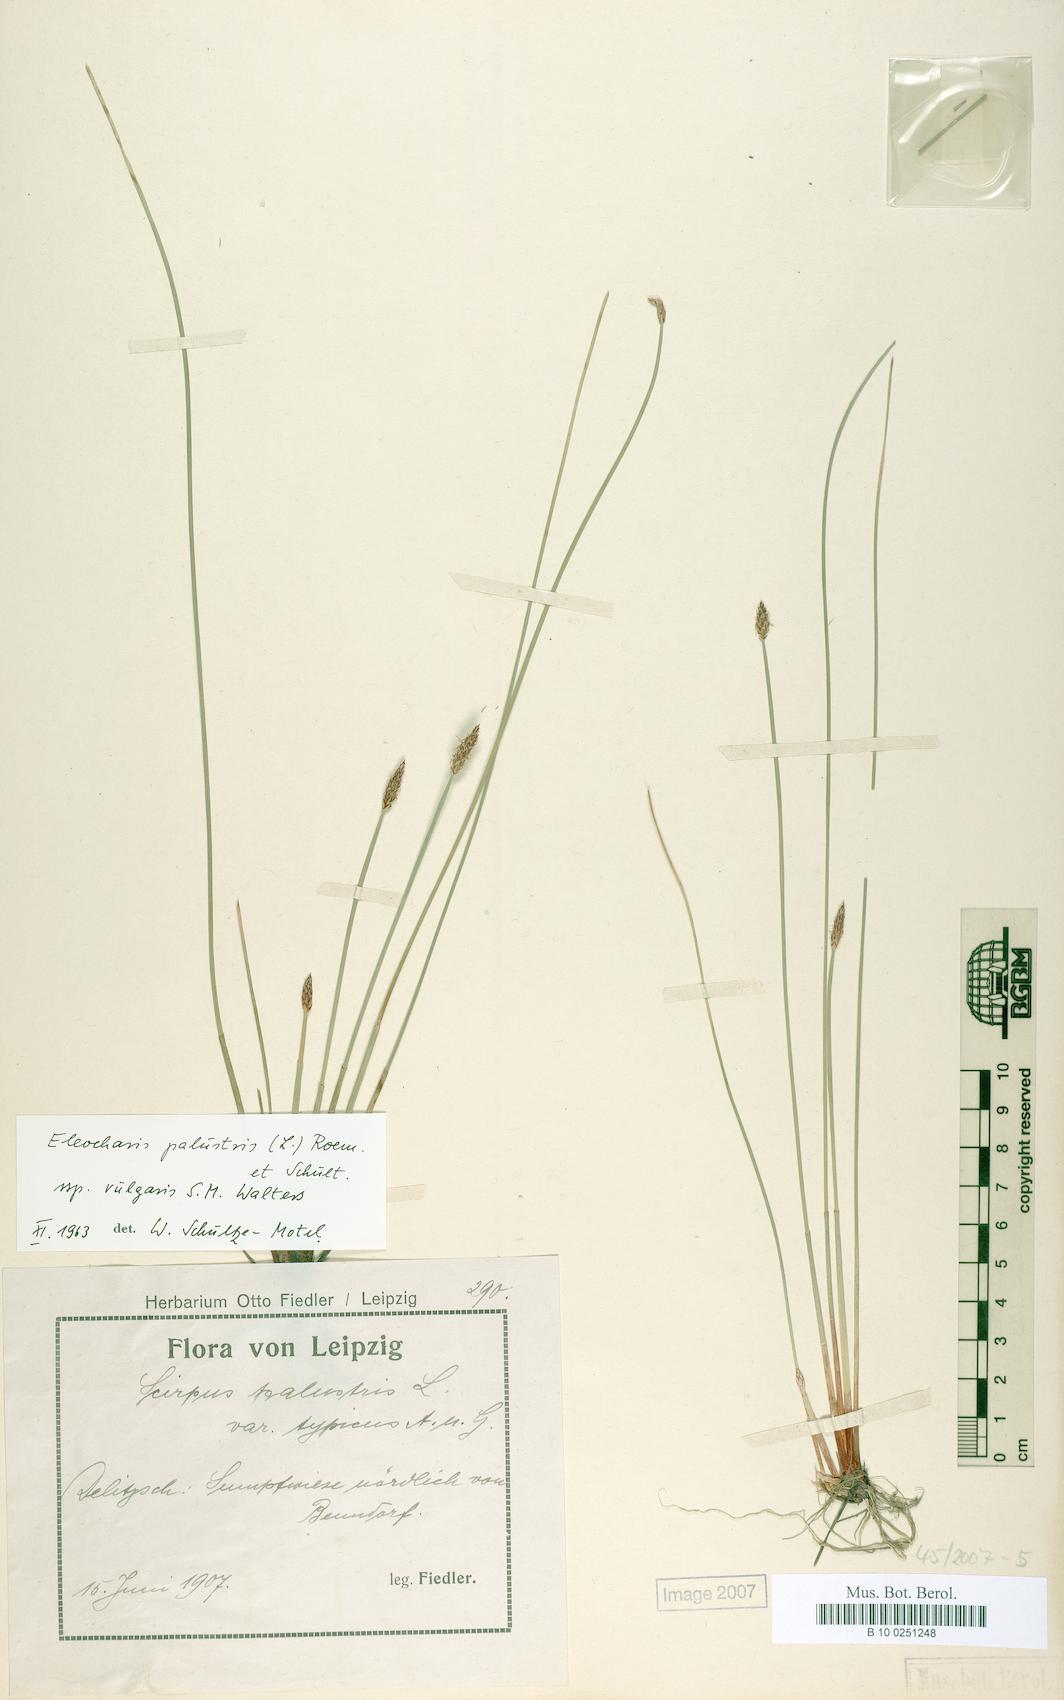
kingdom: Plantae
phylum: Tracheophyta
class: Liliopsida
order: Poales
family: Cyperaceae
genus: Eleocharis
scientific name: Eleocharis palustris
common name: Common spike-rush
